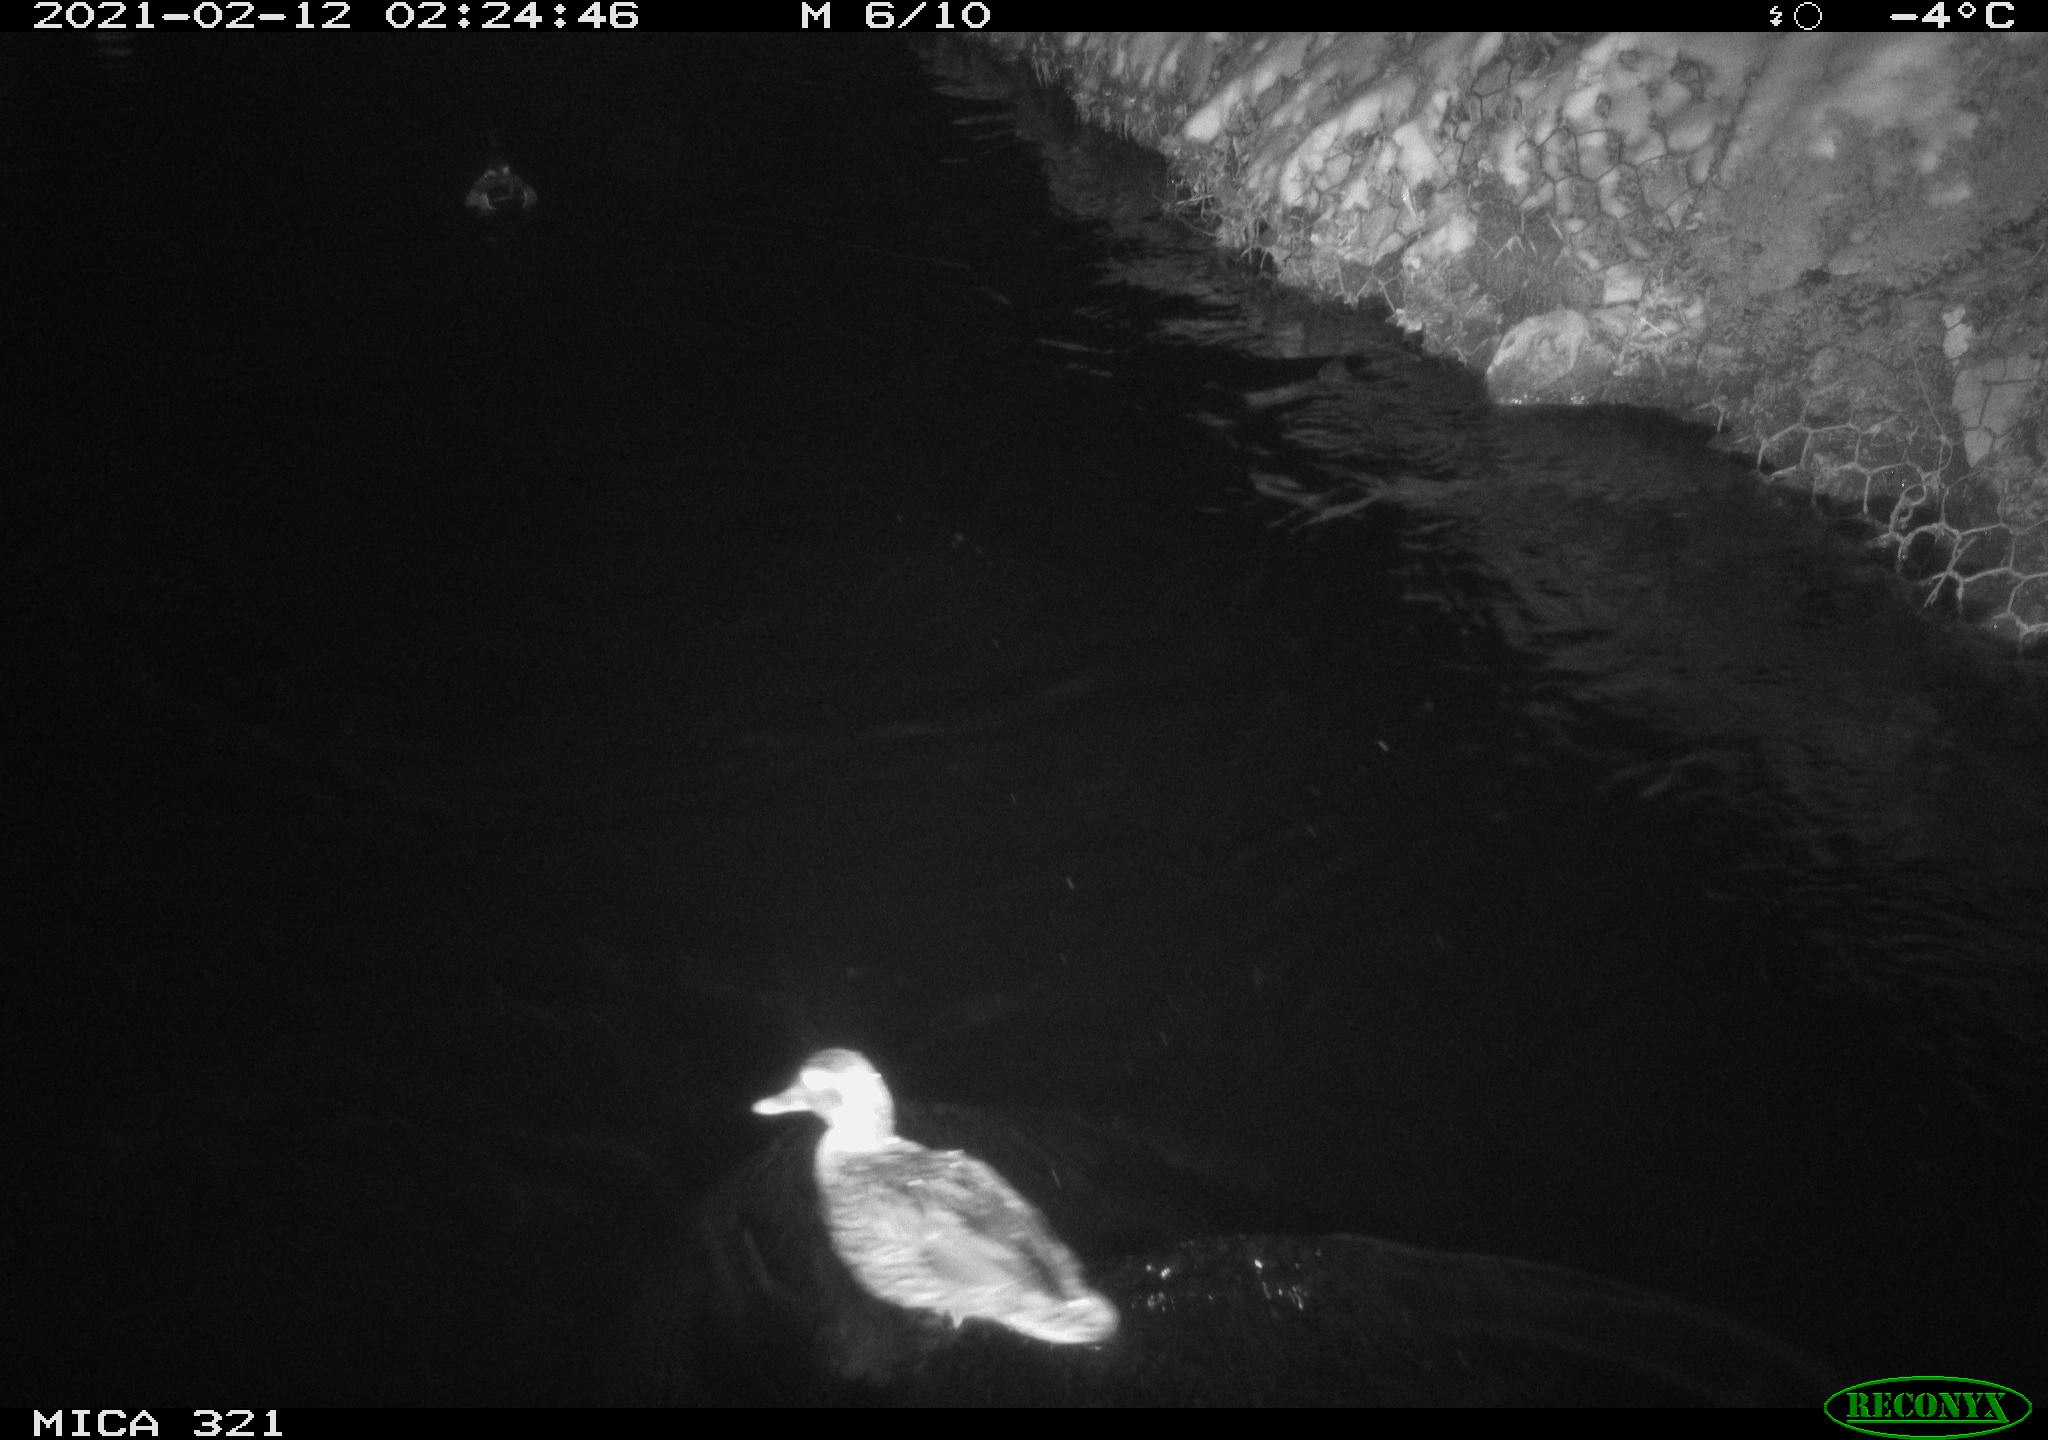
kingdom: Animalia
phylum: Chordata
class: Aves
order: Anseriformes
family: Anatidae
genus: Anas
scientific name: Anas platyrhynchos
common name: Mallard
